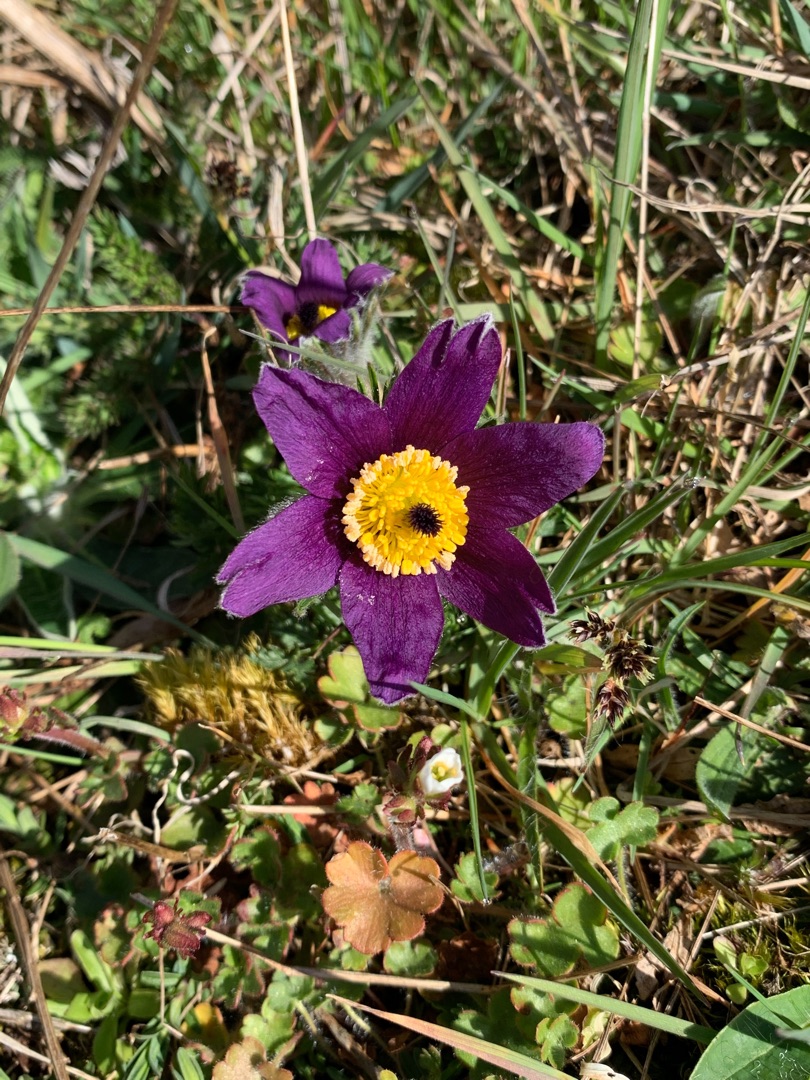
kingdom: Plantae
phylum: Tracheophyta
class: Magnoliopsida
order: Ranunculales
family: Ranunculaceae
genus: Pulsatilla
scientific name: Pulsatilla vulgaris
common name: Opret kobjælde
